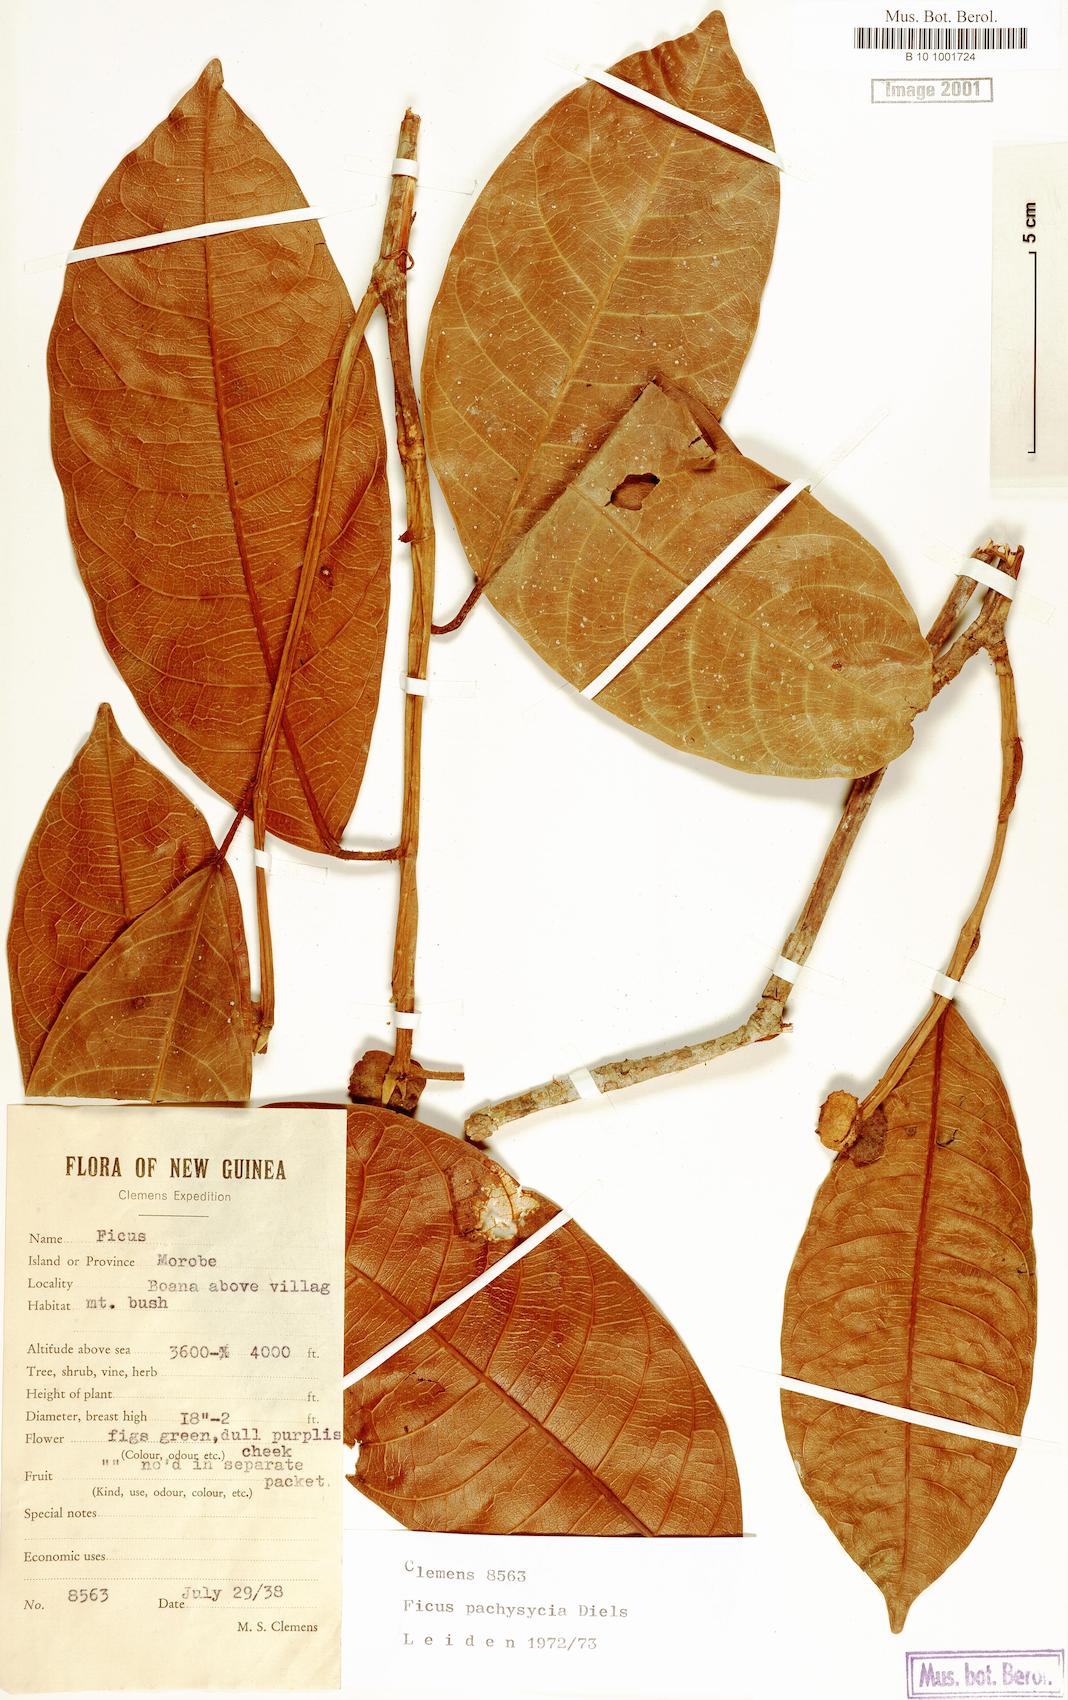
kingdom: Plantae
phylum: Tracheophyta
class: Magnoliopsida
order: Rosales
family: Moraceae
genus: Ficus
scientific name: Ficus pachysycia
